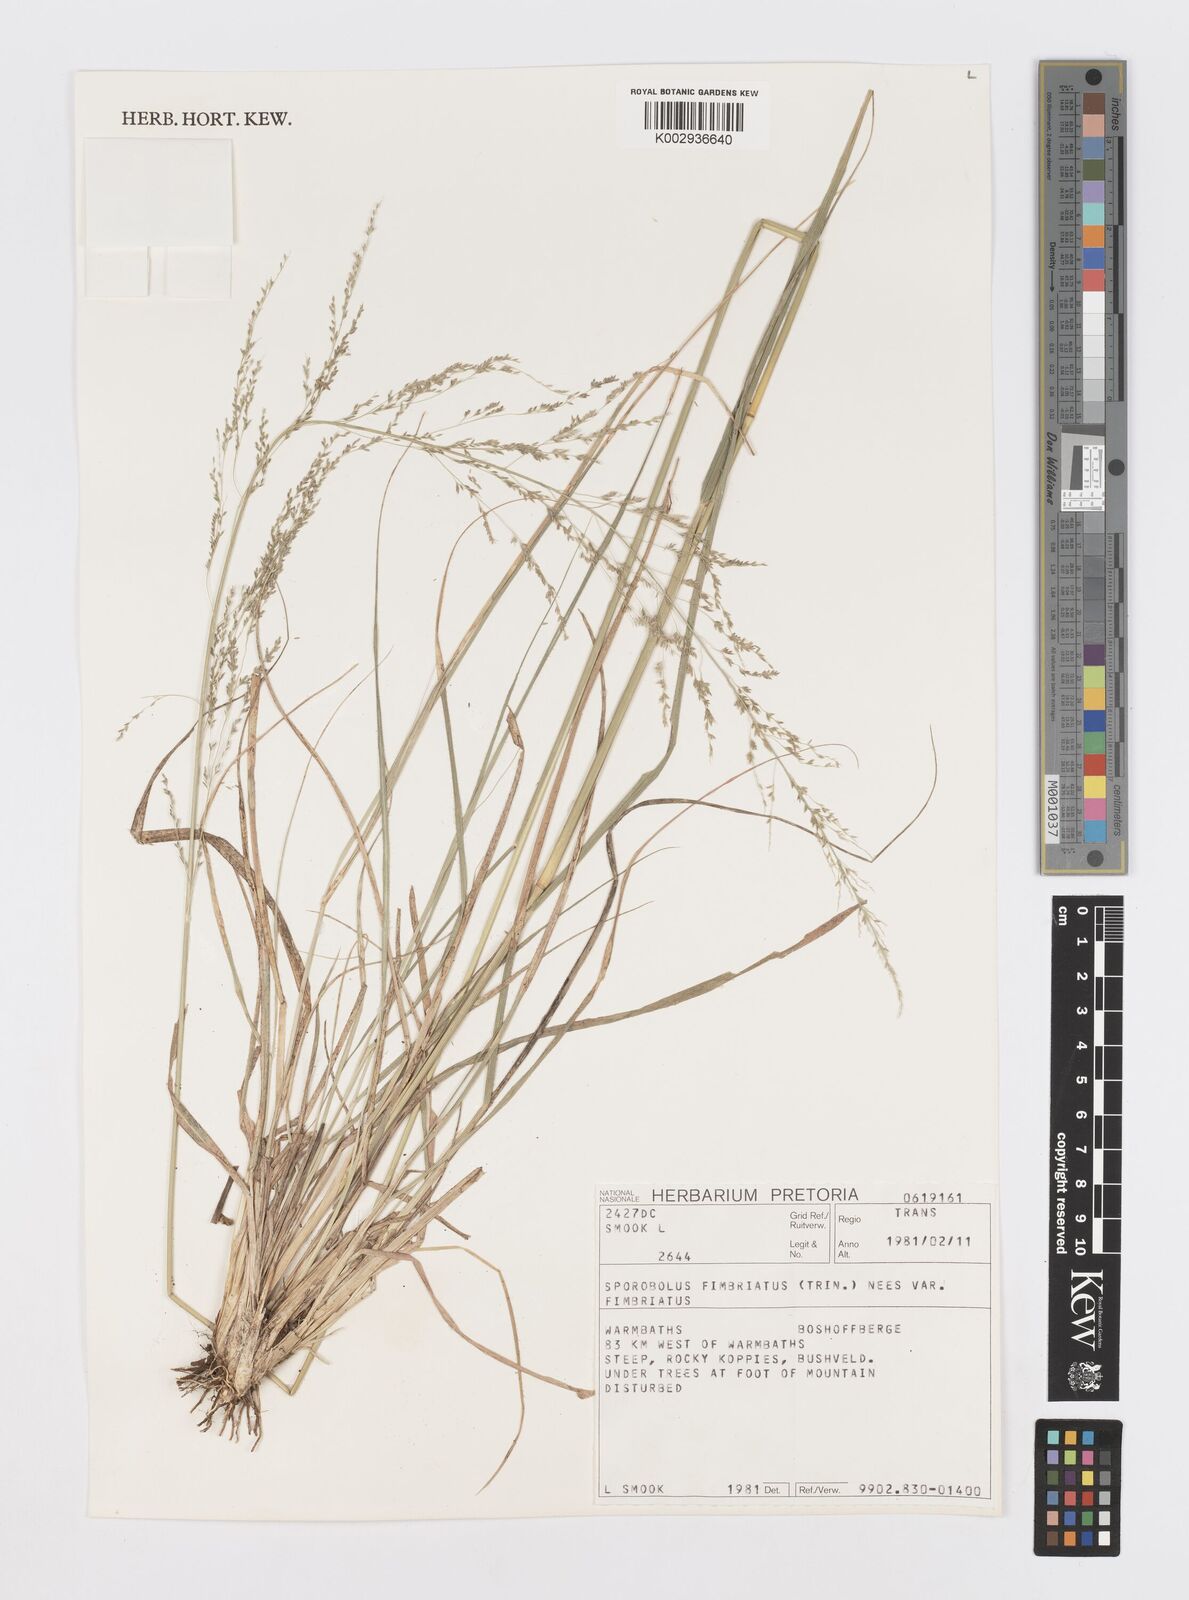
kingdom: Plantae
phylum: Tracheophyta
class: Liliopsida
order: Poales
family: Poaceae
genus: Sporobolus
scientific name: Sporobolus fimbriatus
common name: Fringed dropseed
